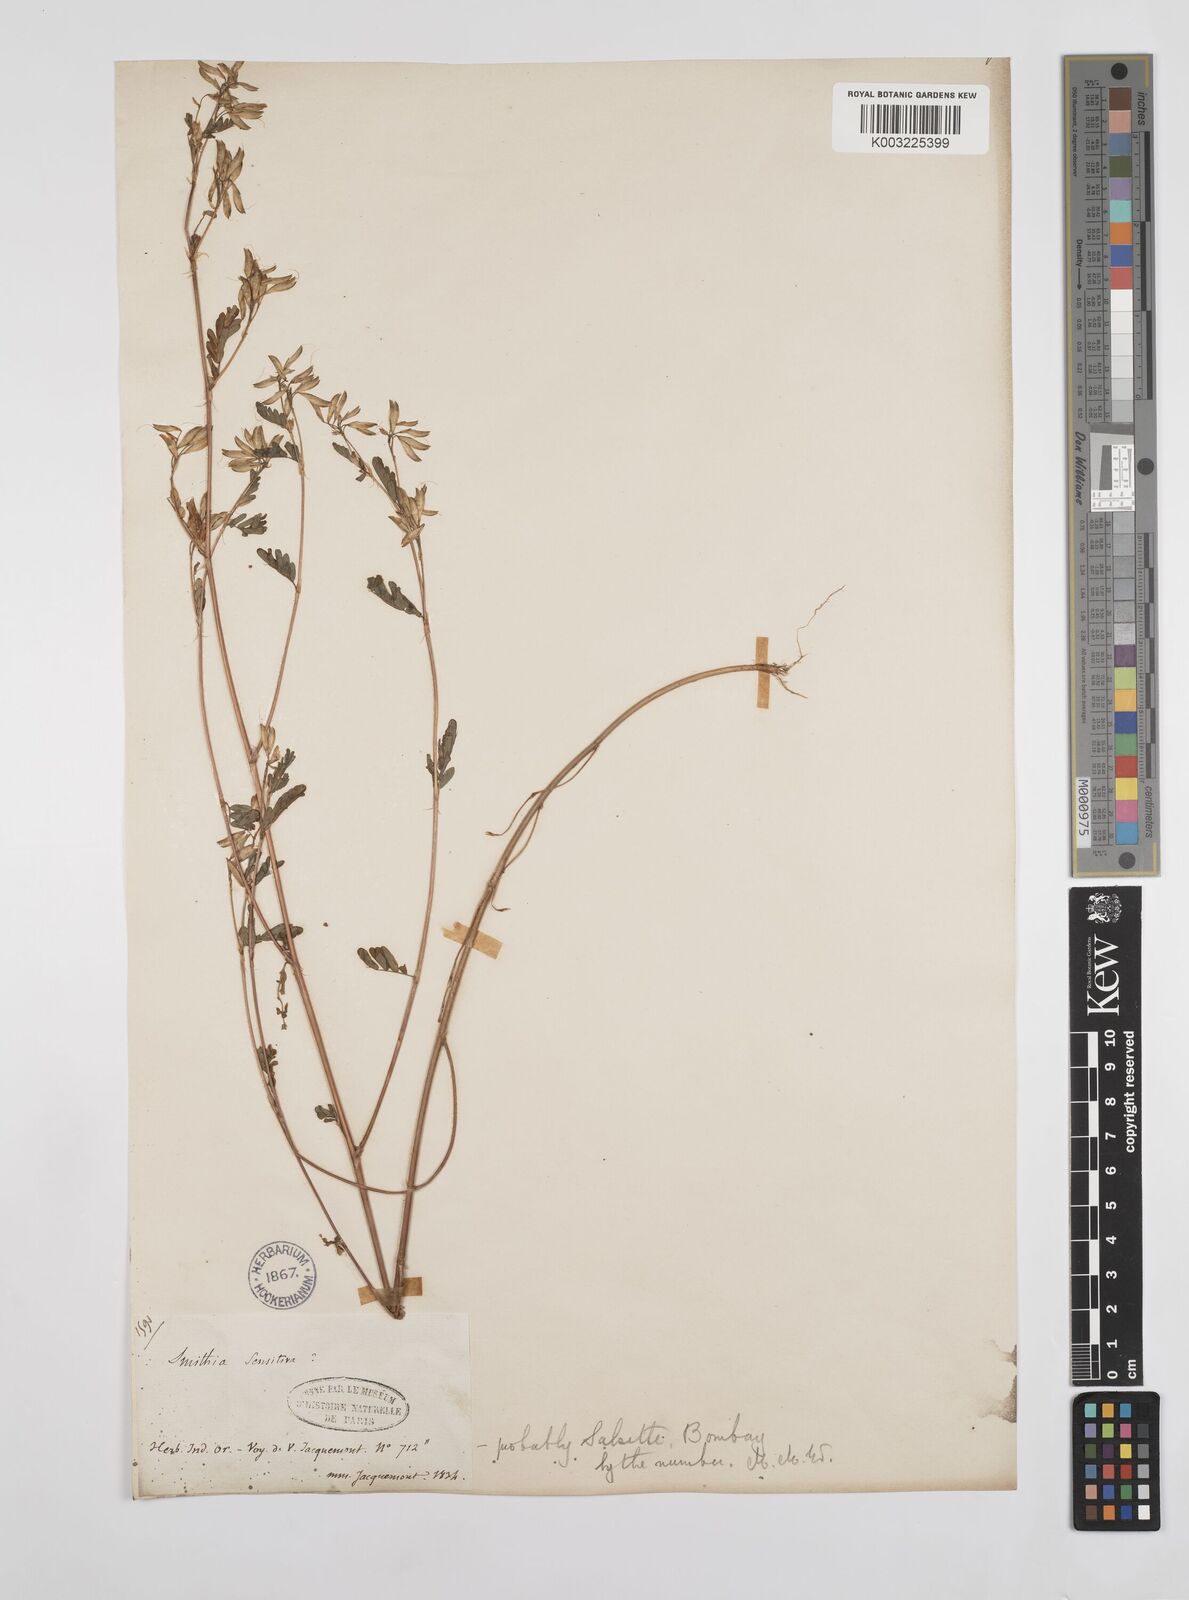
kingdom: Plantae
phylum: Tracheophyta
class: Magnoliopsida
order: Fabales
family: Fabaceae
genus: Smithia
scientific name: Smithia purpurea
